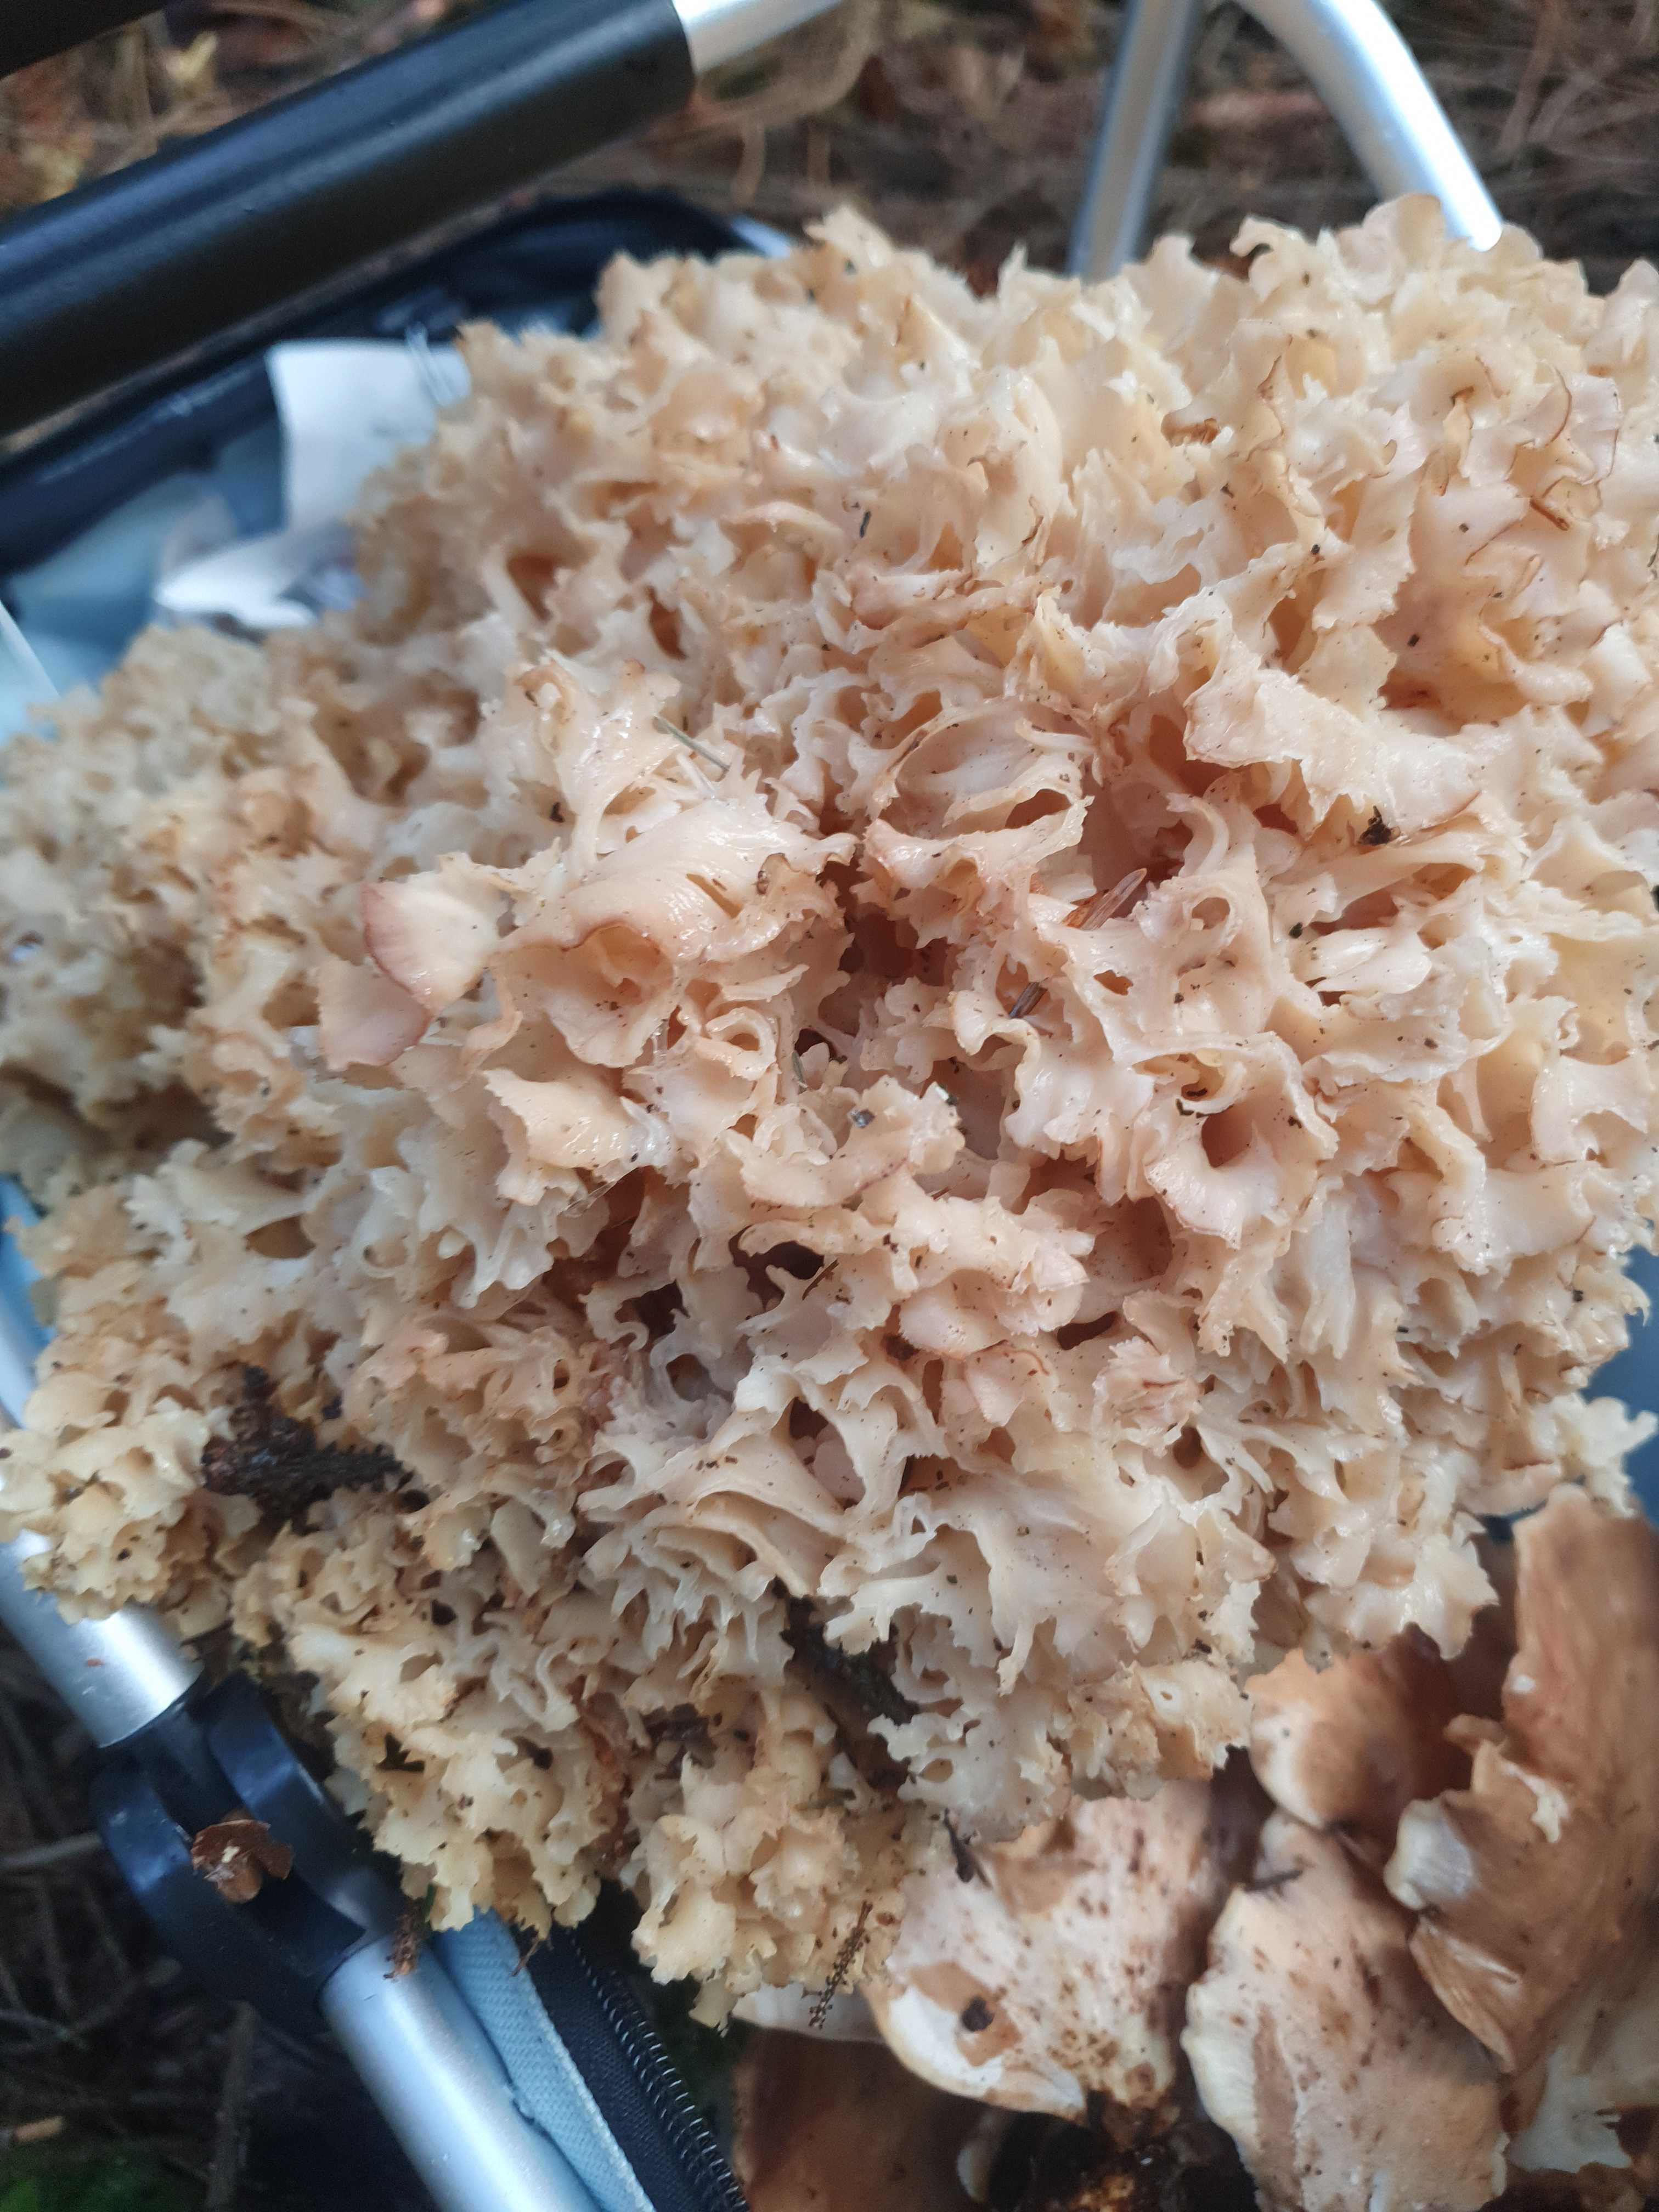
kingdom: Fungi
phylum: Basidiomycota
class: Agaricomycetes
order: Polyporales
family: Sparassidaceae
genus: Sparassis
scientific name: Sparassis crispa
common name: kruset blomkålssvamp
